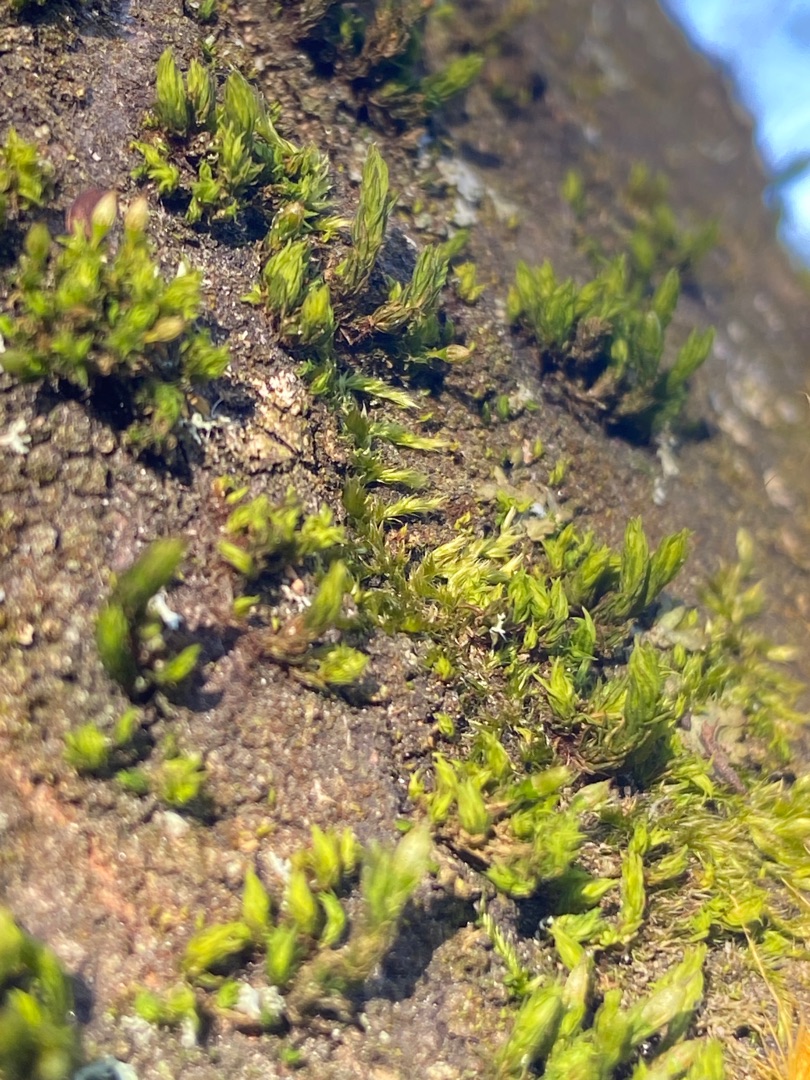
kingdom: Plantae
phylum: Bryophyta
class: Bryopsida
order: Orthotrichales
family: Orthotrichaceae
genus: Lewinskya
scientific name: Lewinskya affinis
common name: Almindelig furehætte
